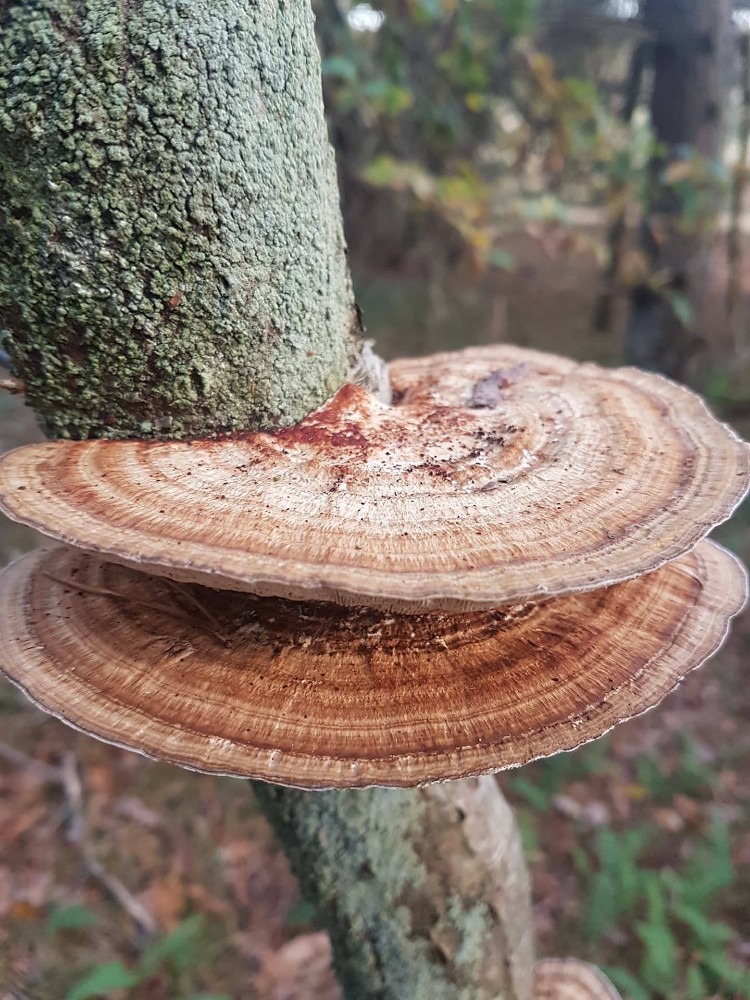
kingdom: Fungi
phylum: Basidiomycota
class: Agaricomycetes
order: Polyporales
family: Polyporaceae
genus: Daedaleopsis
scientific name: Daedaleopsis confragosa
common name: rødmende læderporesvamp
